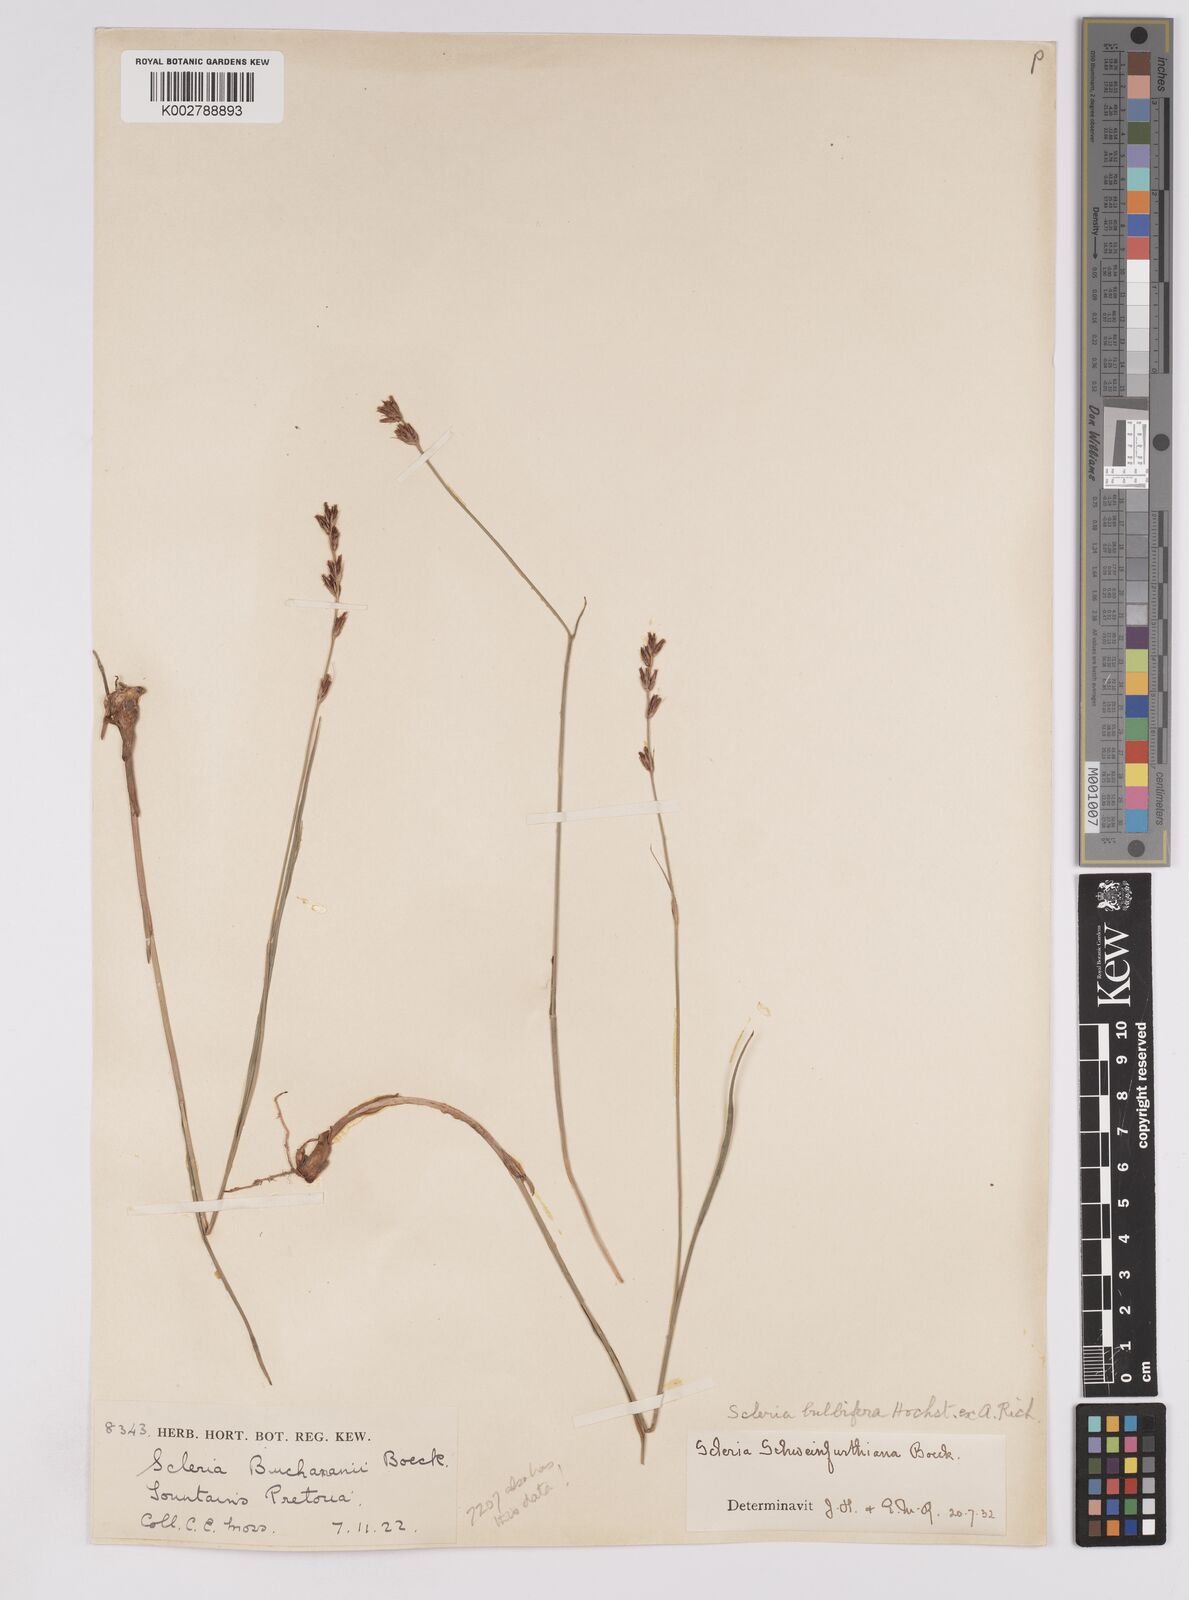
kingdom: Plantae
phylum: Tracheophyta
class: Liliopsida
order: Poales
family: Cyperaceae
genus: Scleria
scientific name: Scleria bulbifera
